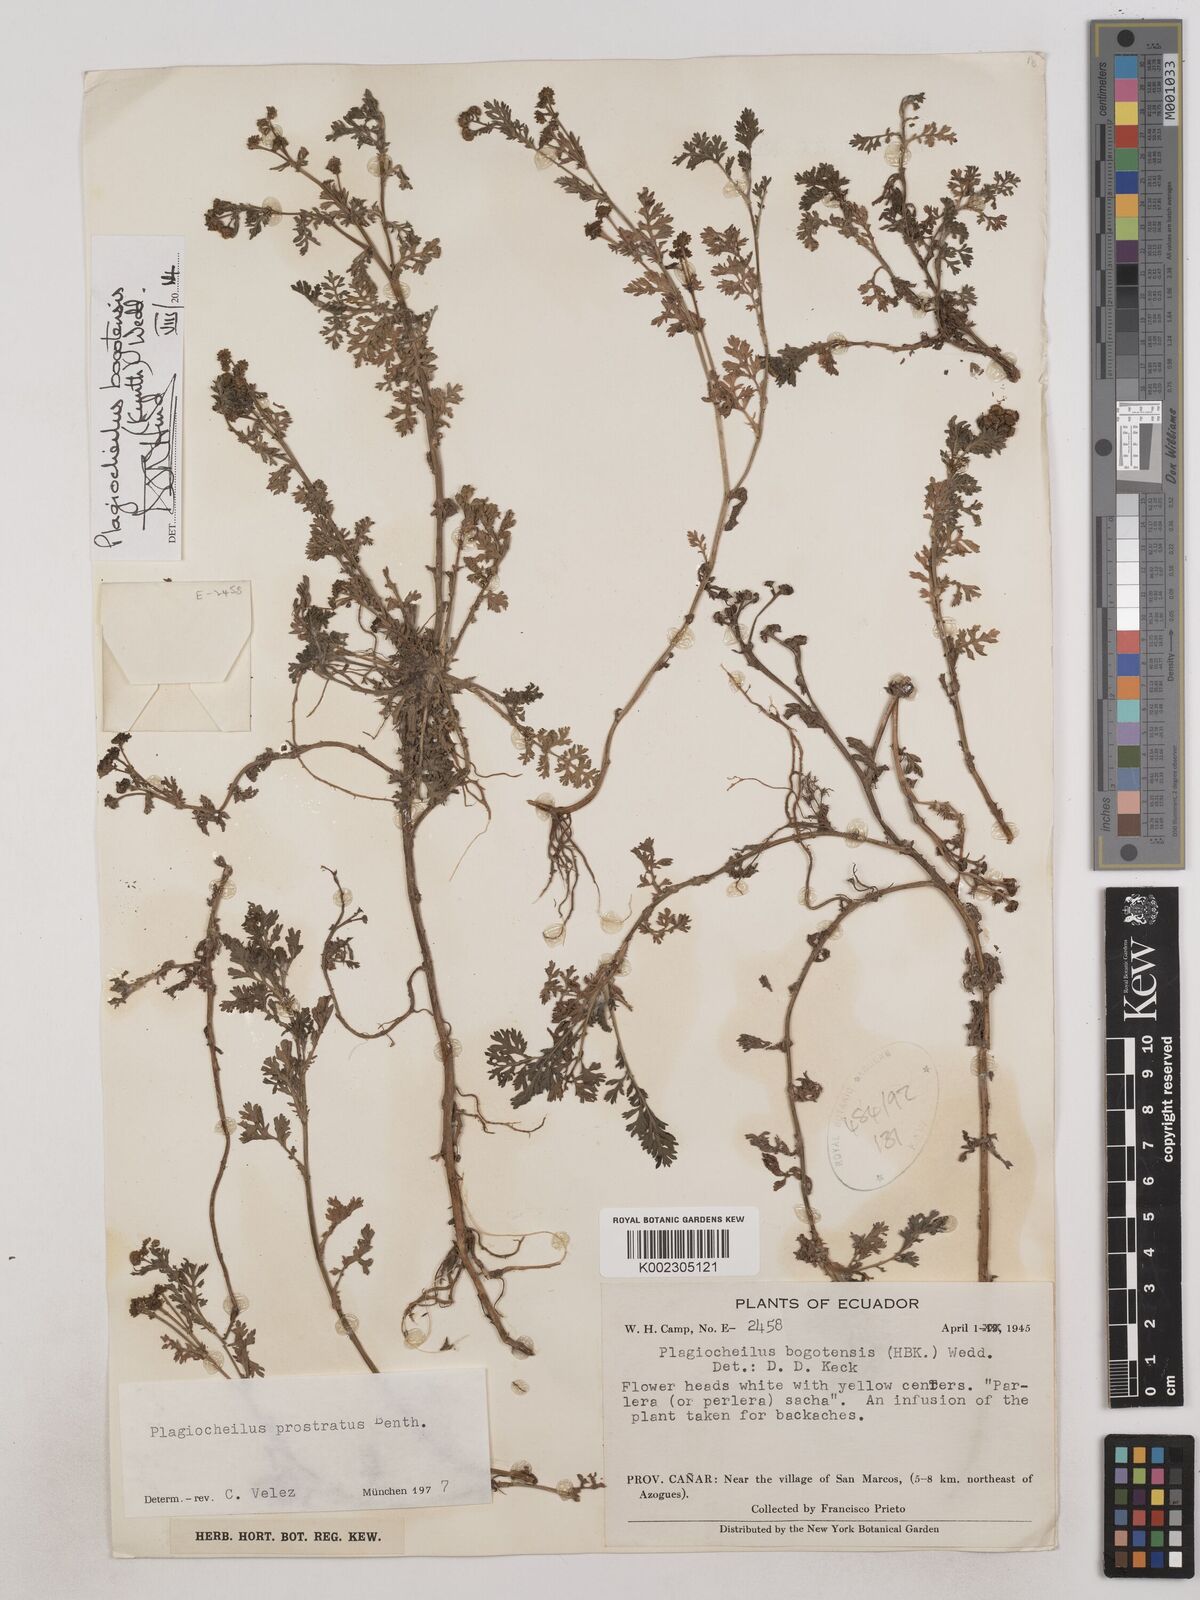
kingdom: Plantae
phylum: Tracheophyta
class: Magnoliopsida
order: Asterales
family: Asteraceae
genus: Plagiocheilus
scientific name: Plagiocheilus bogotensis
